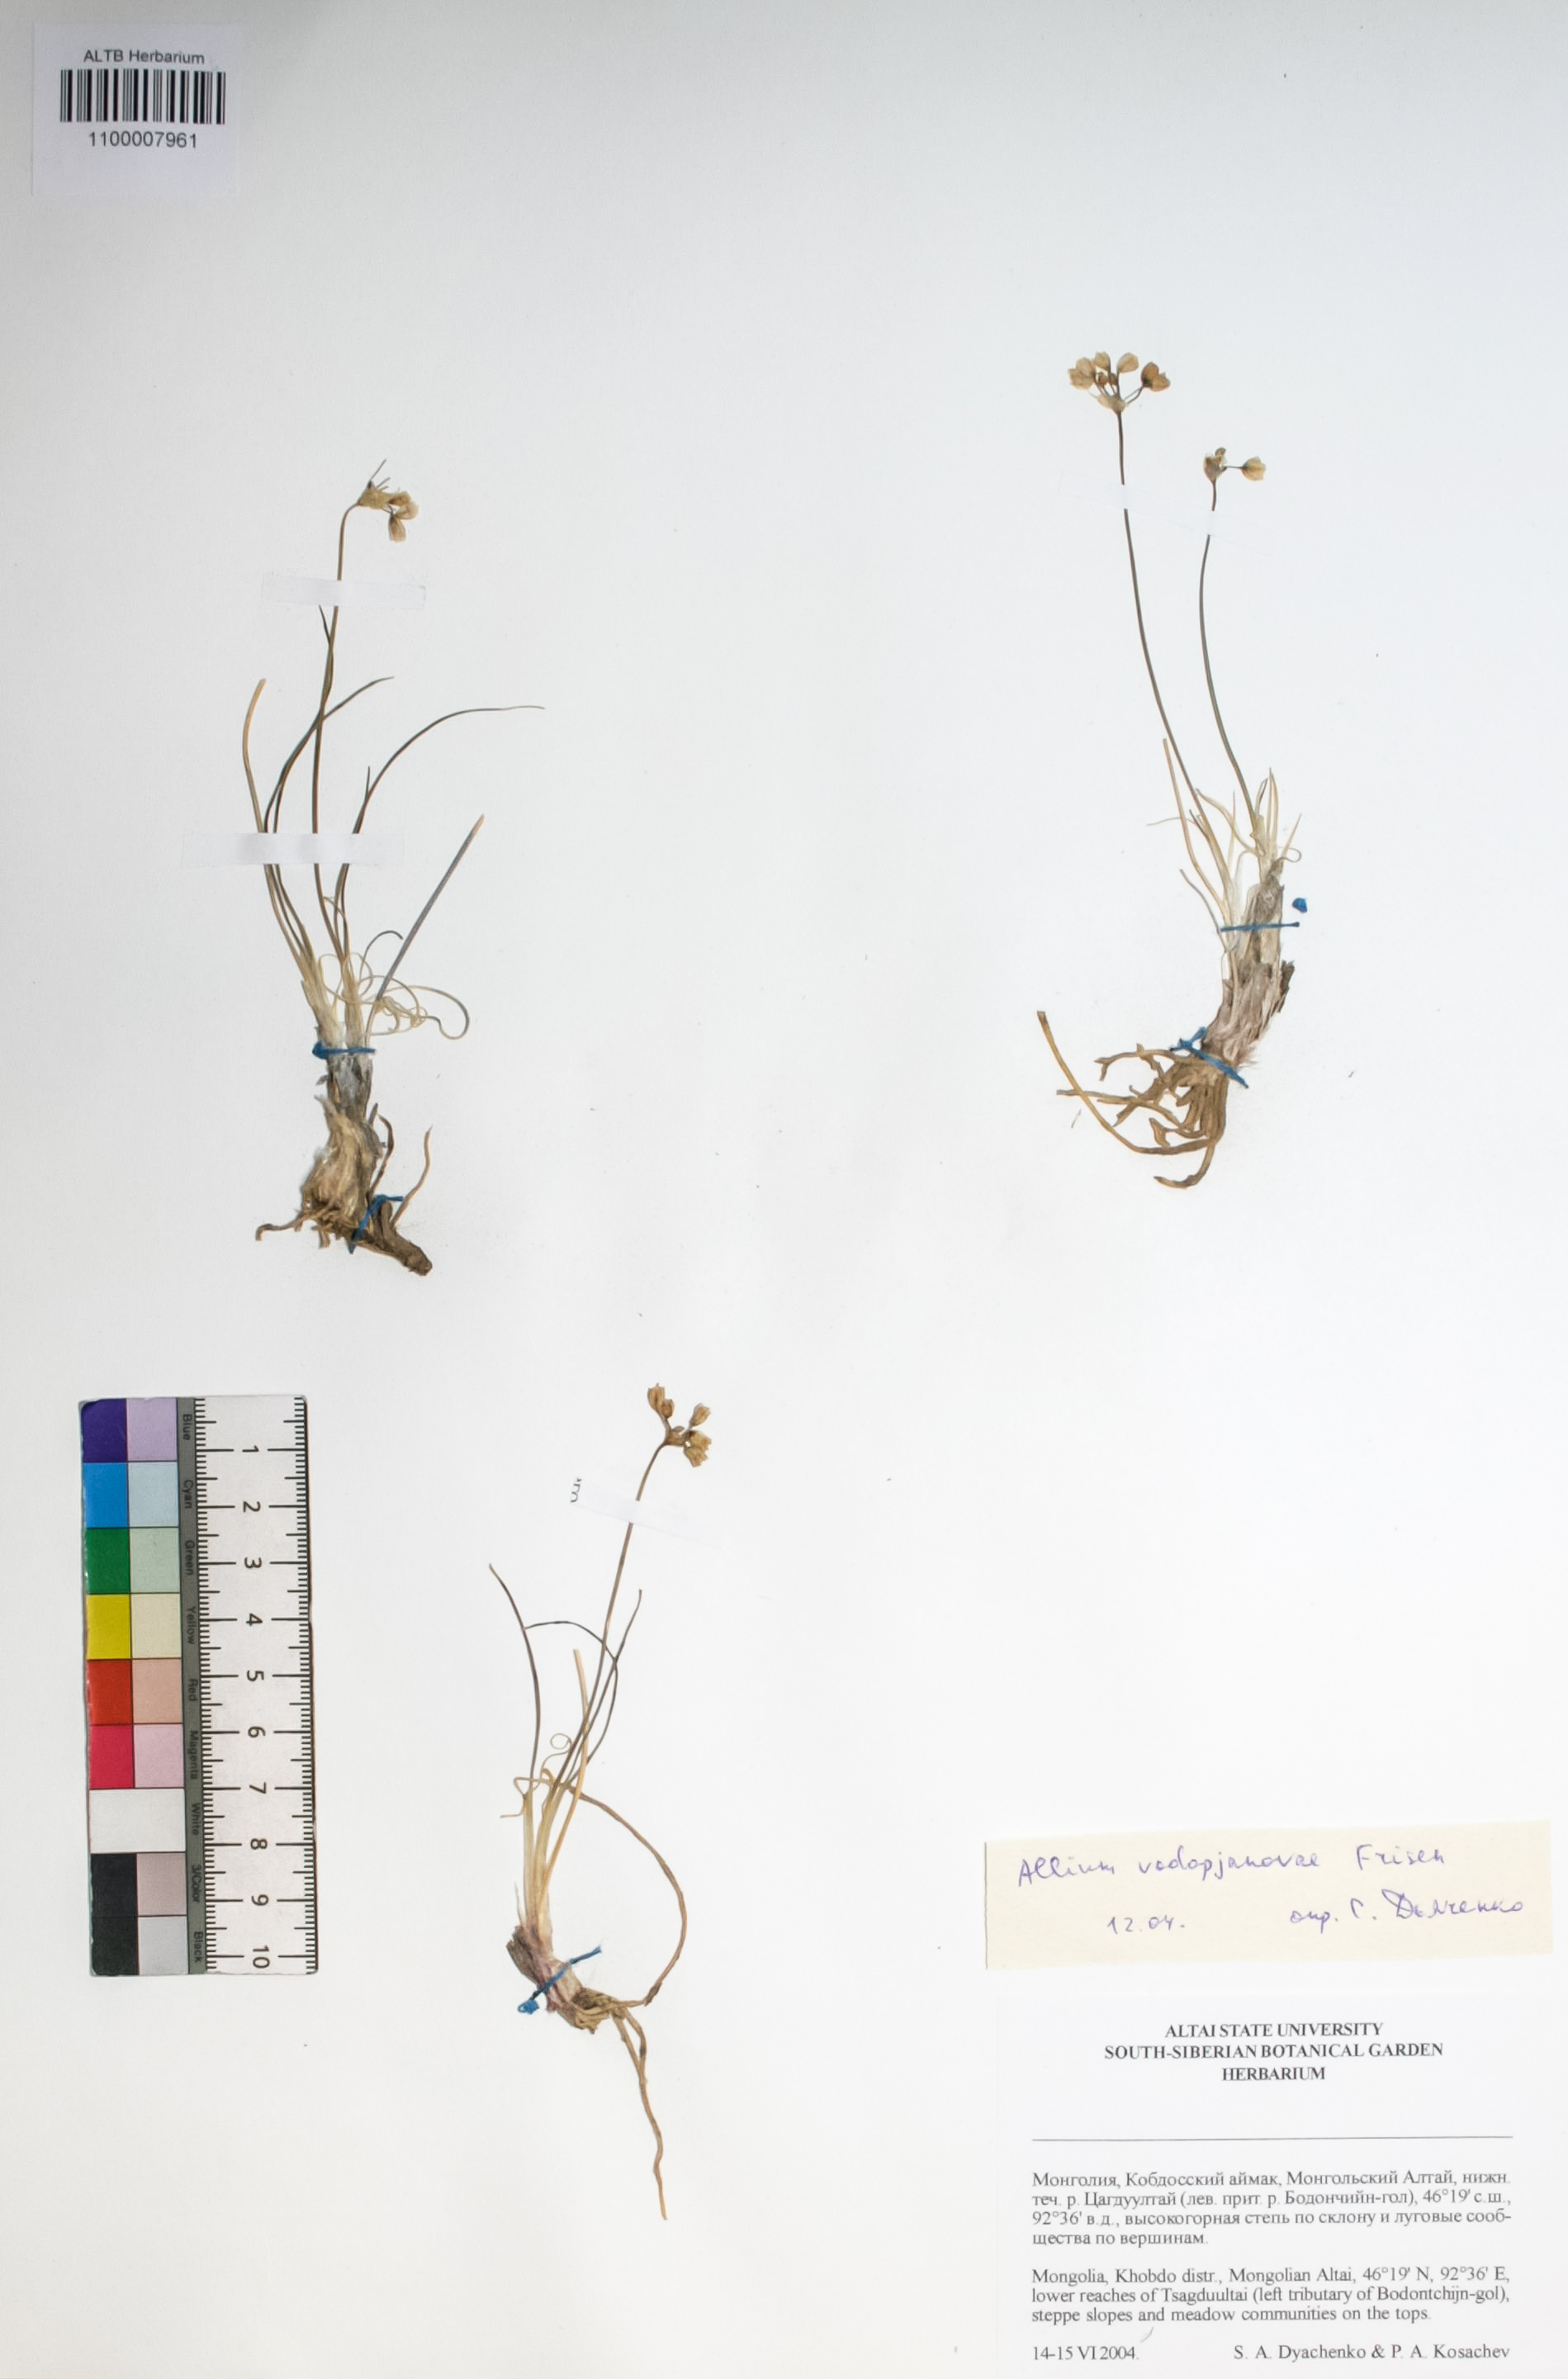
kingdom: Plantae
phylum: Tracheophyta
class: Magnoliopsida
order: Asterales
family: Asteraceae
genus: Tripleurospermum
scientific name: Tripleurospermum inodorum
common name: Scentless mayweed
